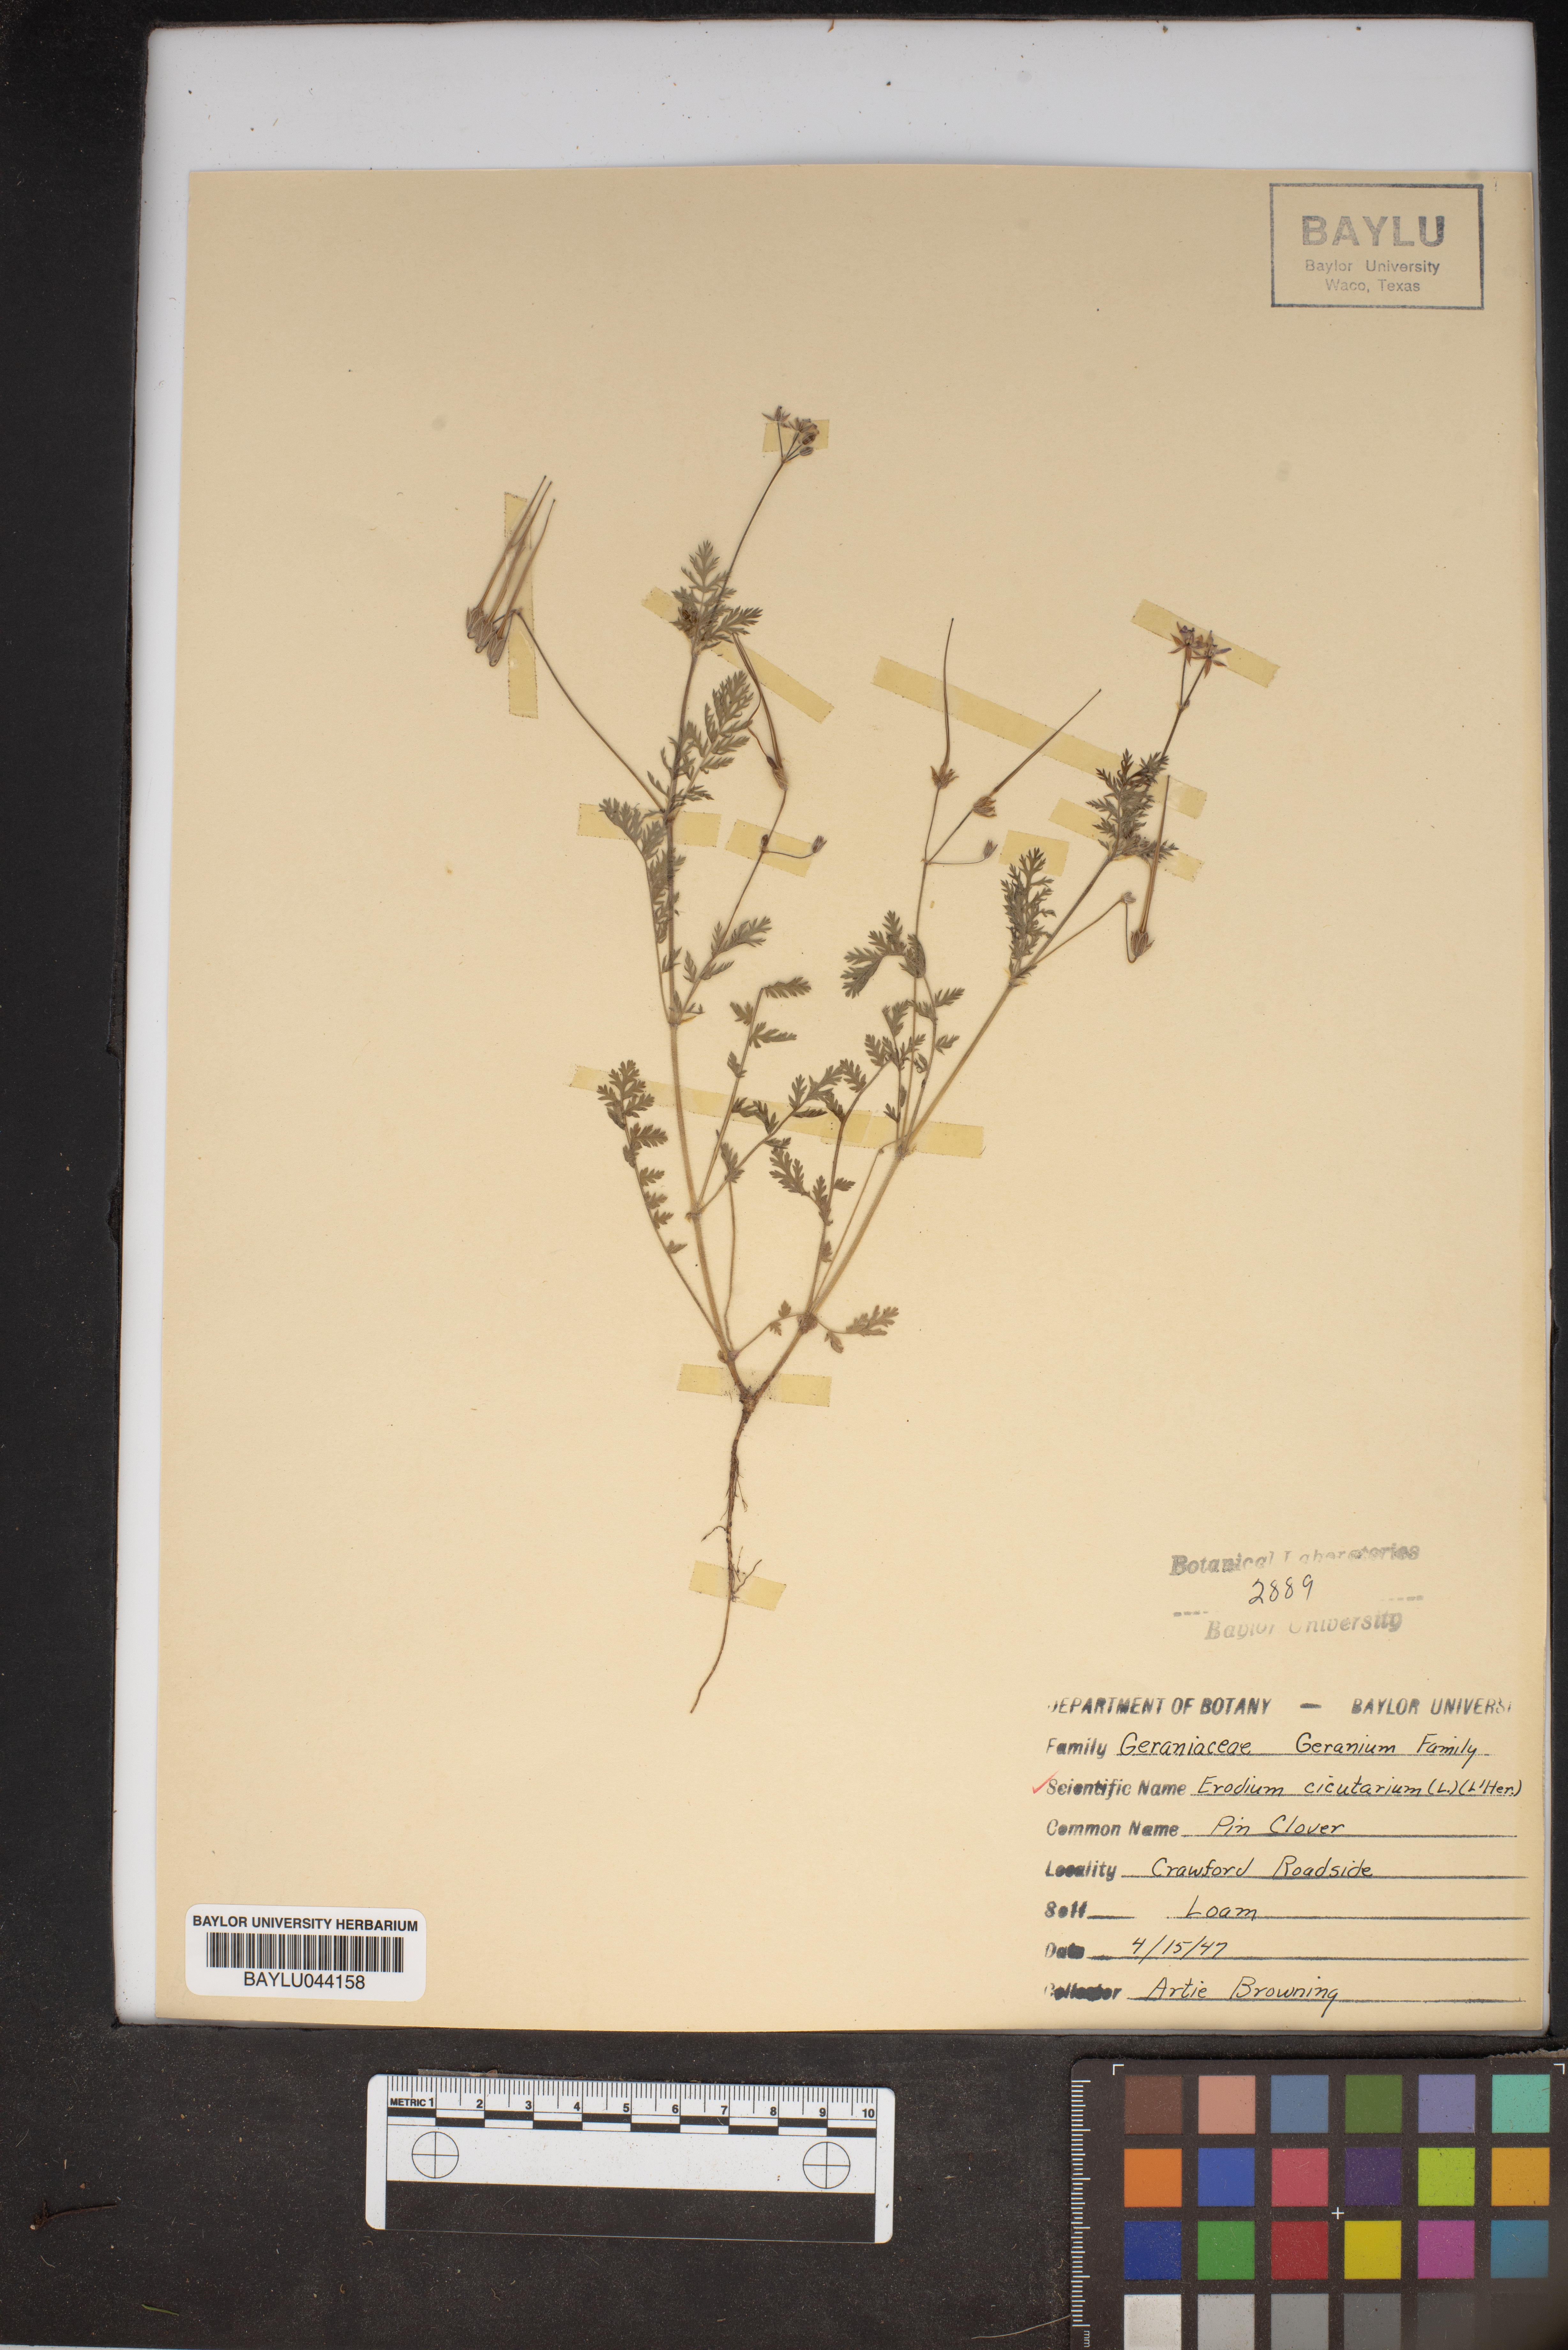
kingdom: Plantae
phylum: Tracheophyta
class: Magnoliopsida
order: Geraniales
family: Geraniaceae
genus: Erodium
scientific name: Erodium cicutarium
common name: Common stork's-bill
